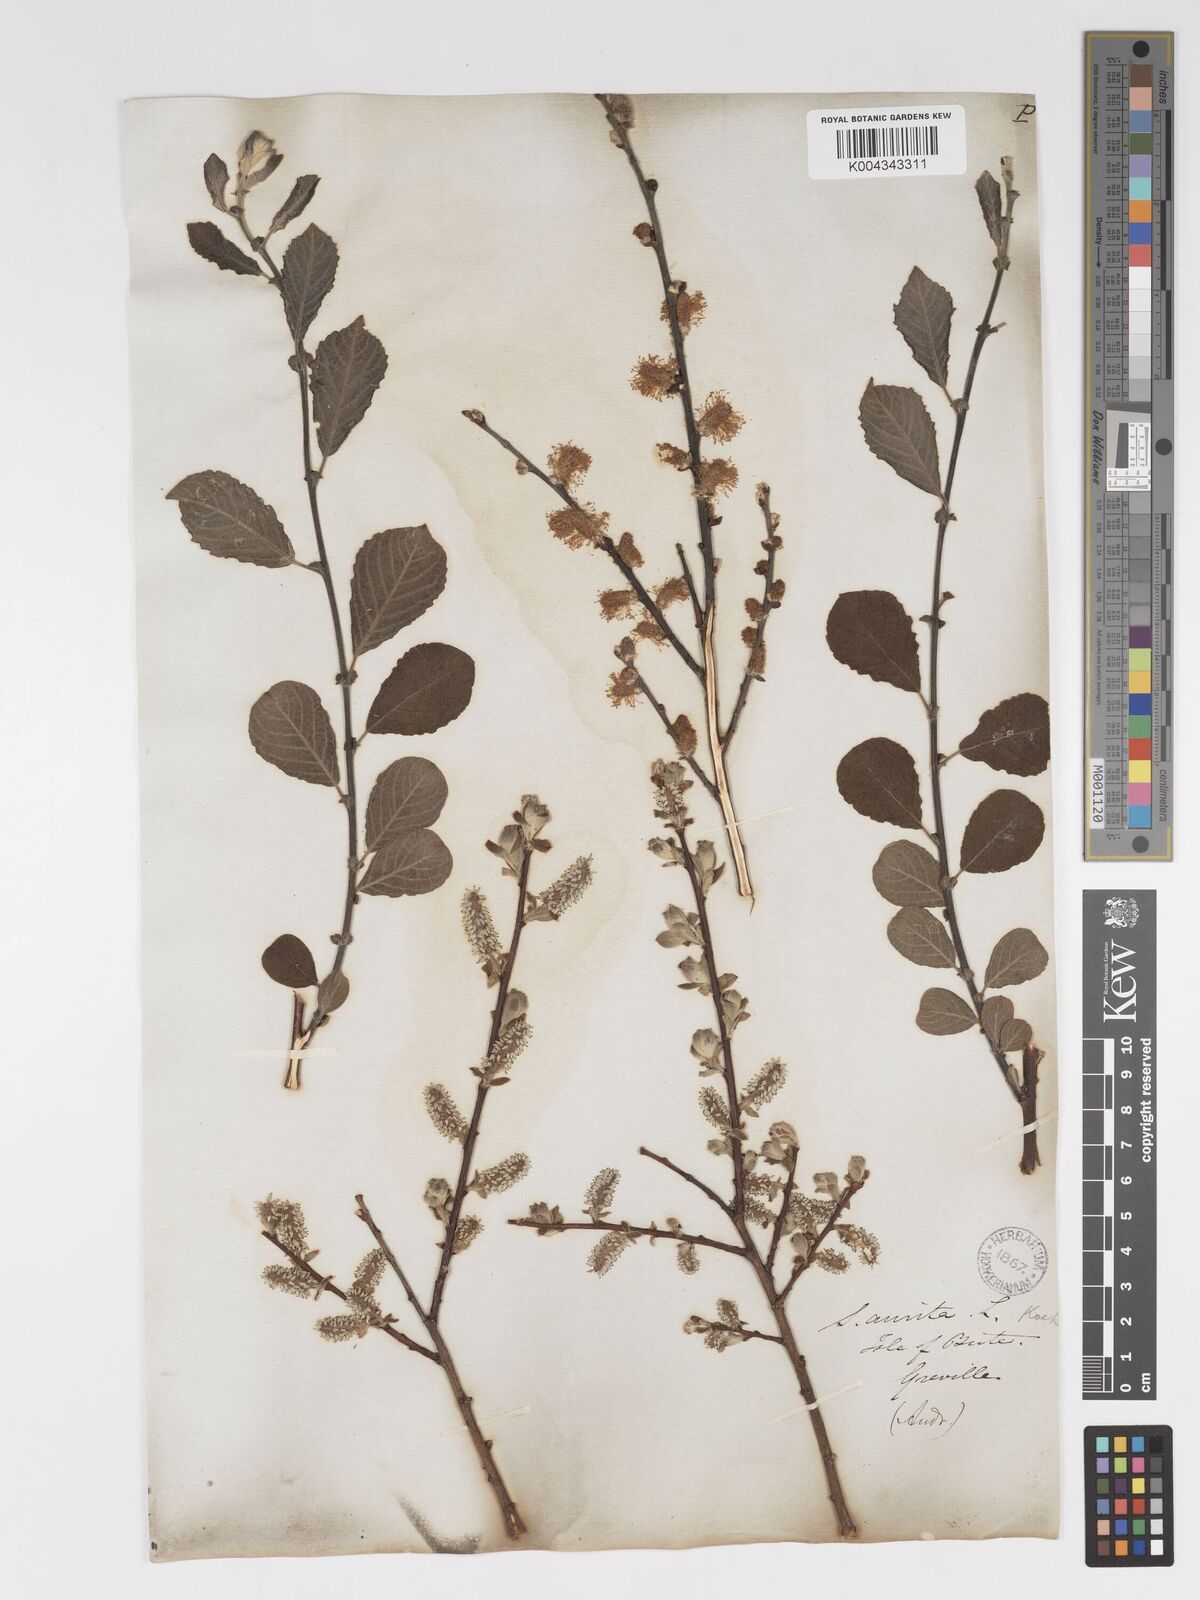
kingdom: Plantae
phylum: Tracheophyta
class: Magnoliopsida
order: Malpighiales
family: Salicaceae
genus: Salix
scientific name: Salix aurita
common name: Eared willow
